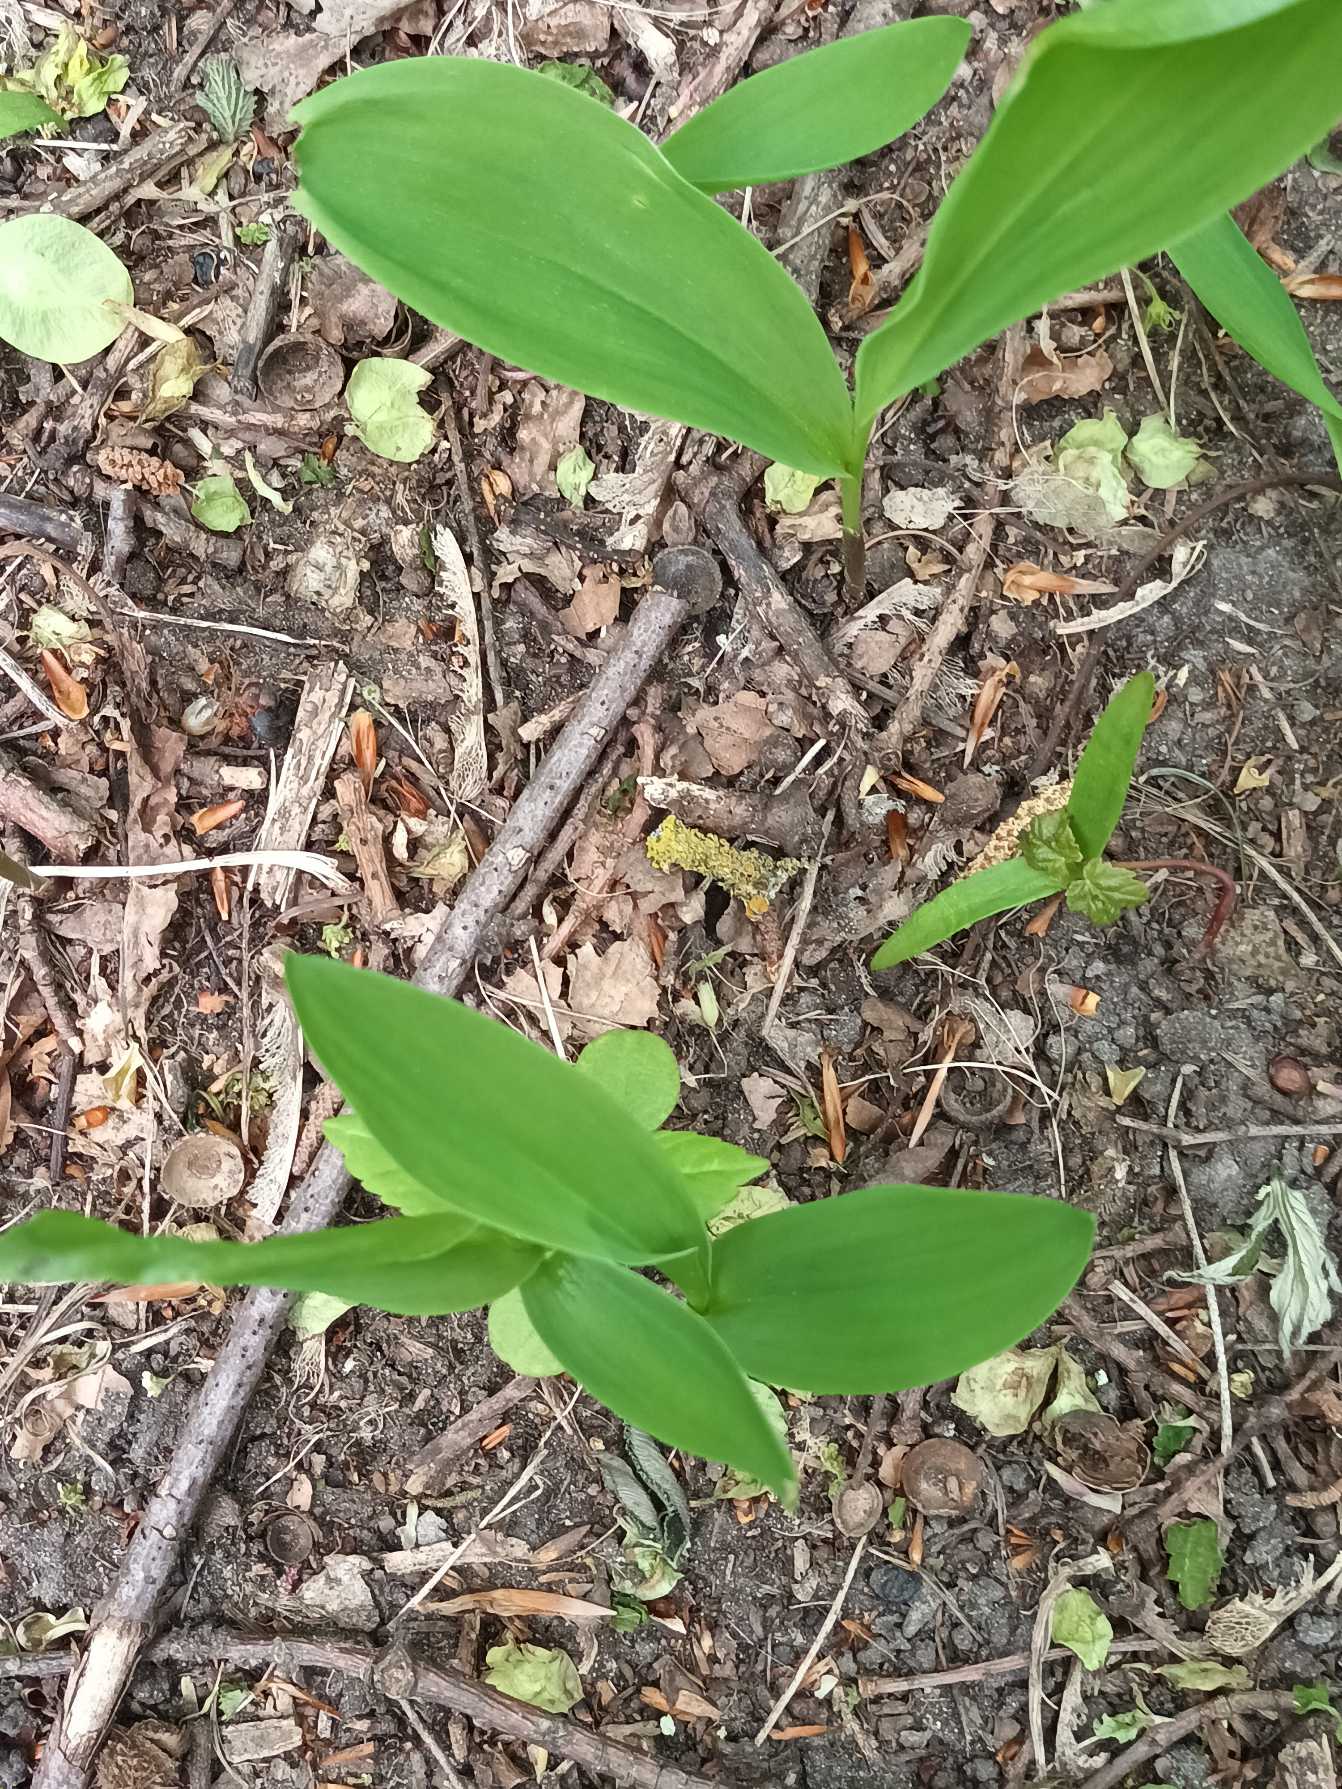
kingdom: Plantae
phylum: Tracheophyta
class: Liliopsida
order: Asparagales
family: Asparagaceae
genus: Convallaria
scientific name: Convallaria majalis
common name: Liljekonval
